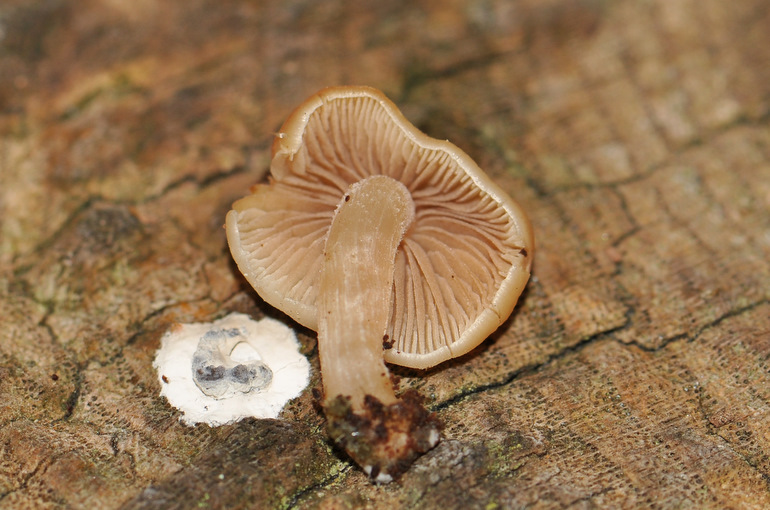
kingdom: Fungi
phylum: Basidiomycota
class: Agaricomycetes
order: Agaricales
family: Psathyrellaceae
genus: Homophron
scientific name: Homophron cernuum
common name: hvidlig mørkhat
